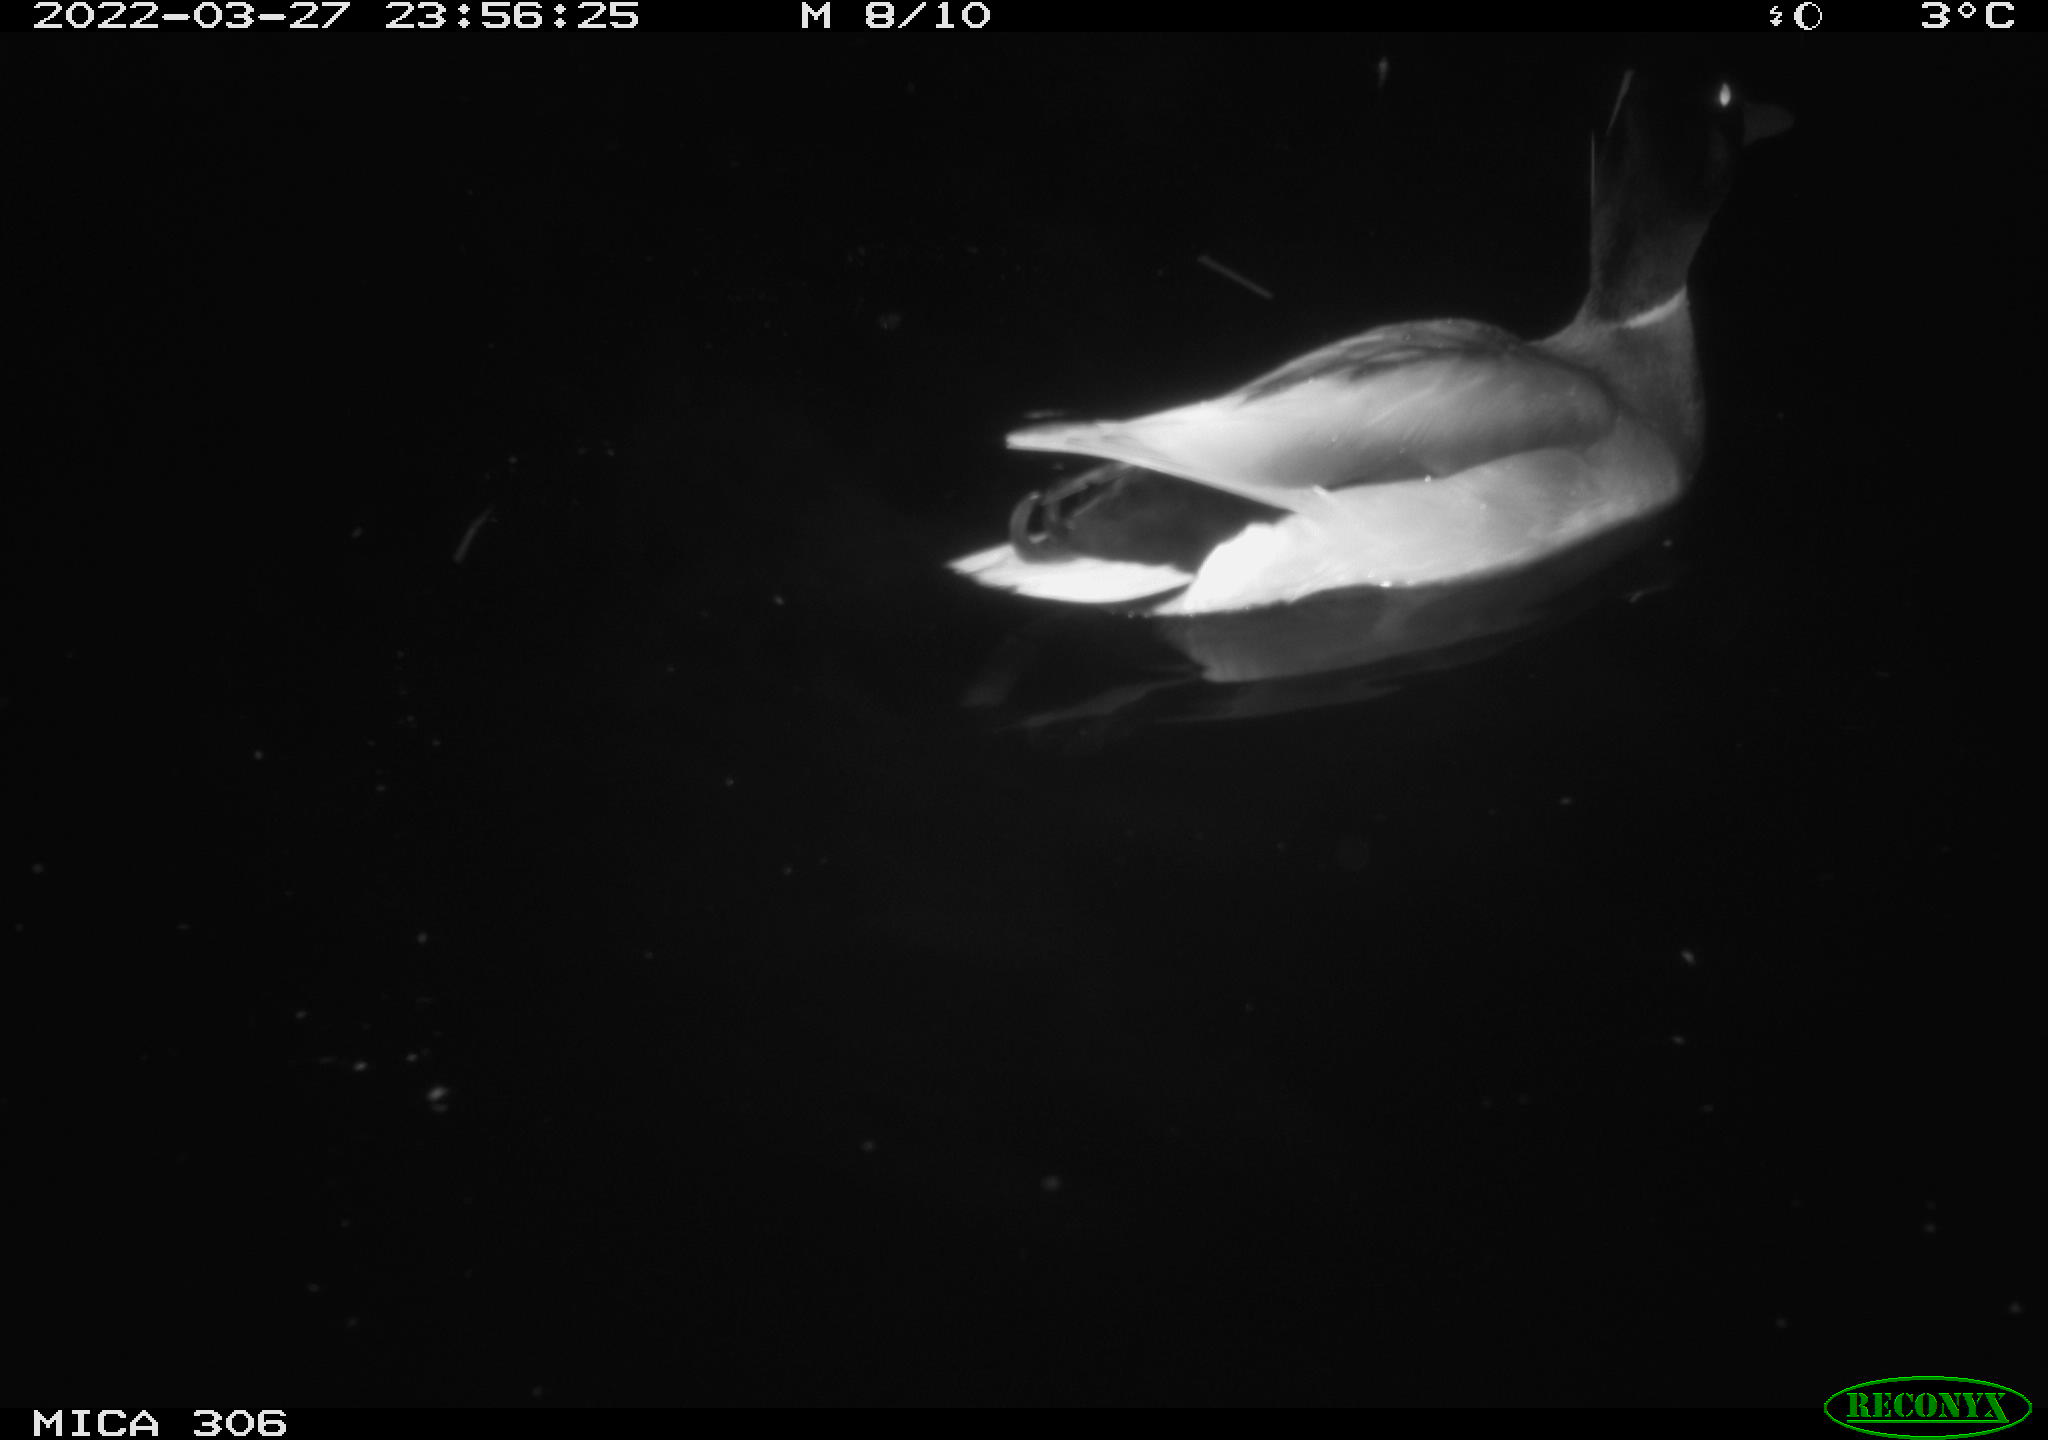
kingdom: Animalia
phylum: Chordata
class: Aves
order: Anseriformes
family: Anatidae
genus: Anas
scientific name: Anas
